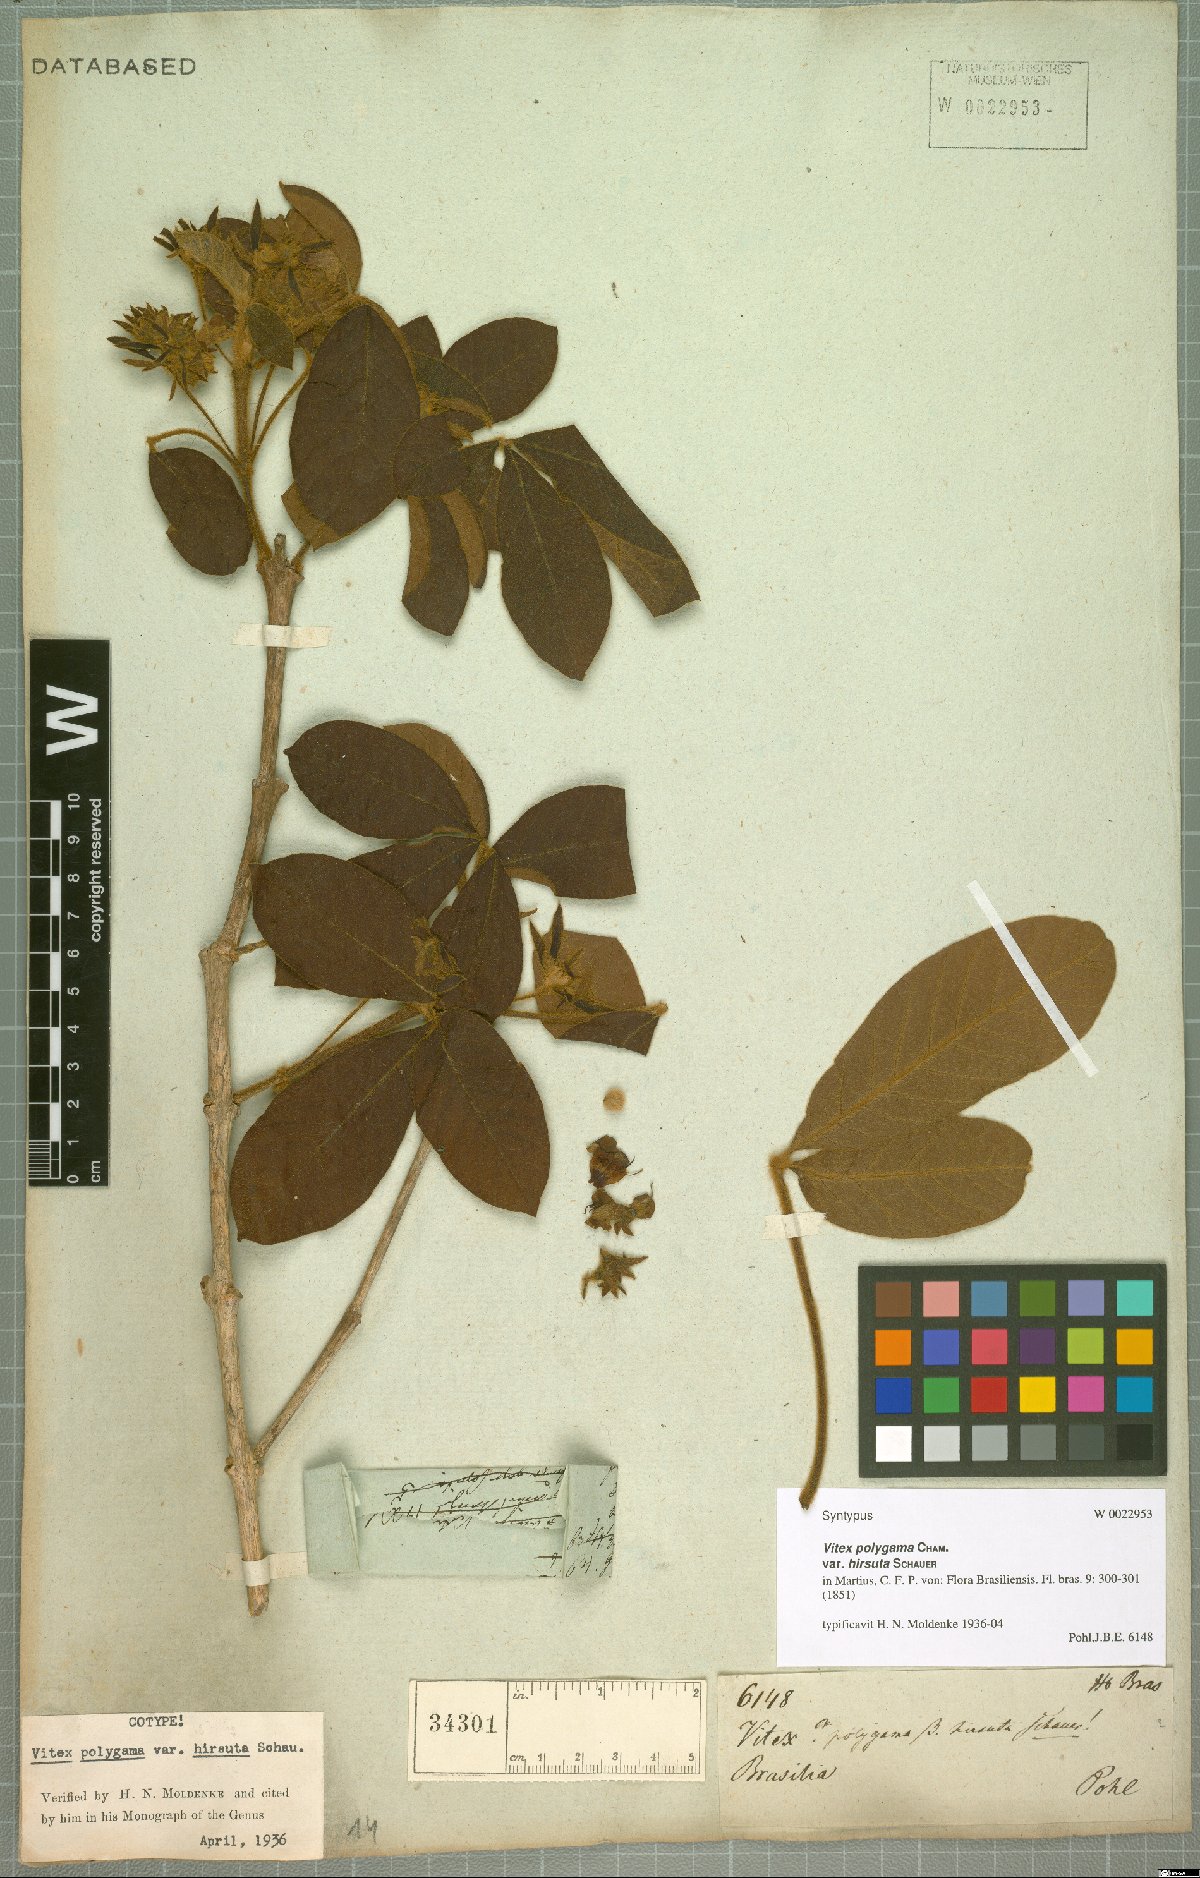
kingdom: Plantae
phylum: Tracheophyta
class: Magnoliopsida
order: Lamiales
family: Lamiaceae
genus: Vitex
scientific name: Vitex polygama
